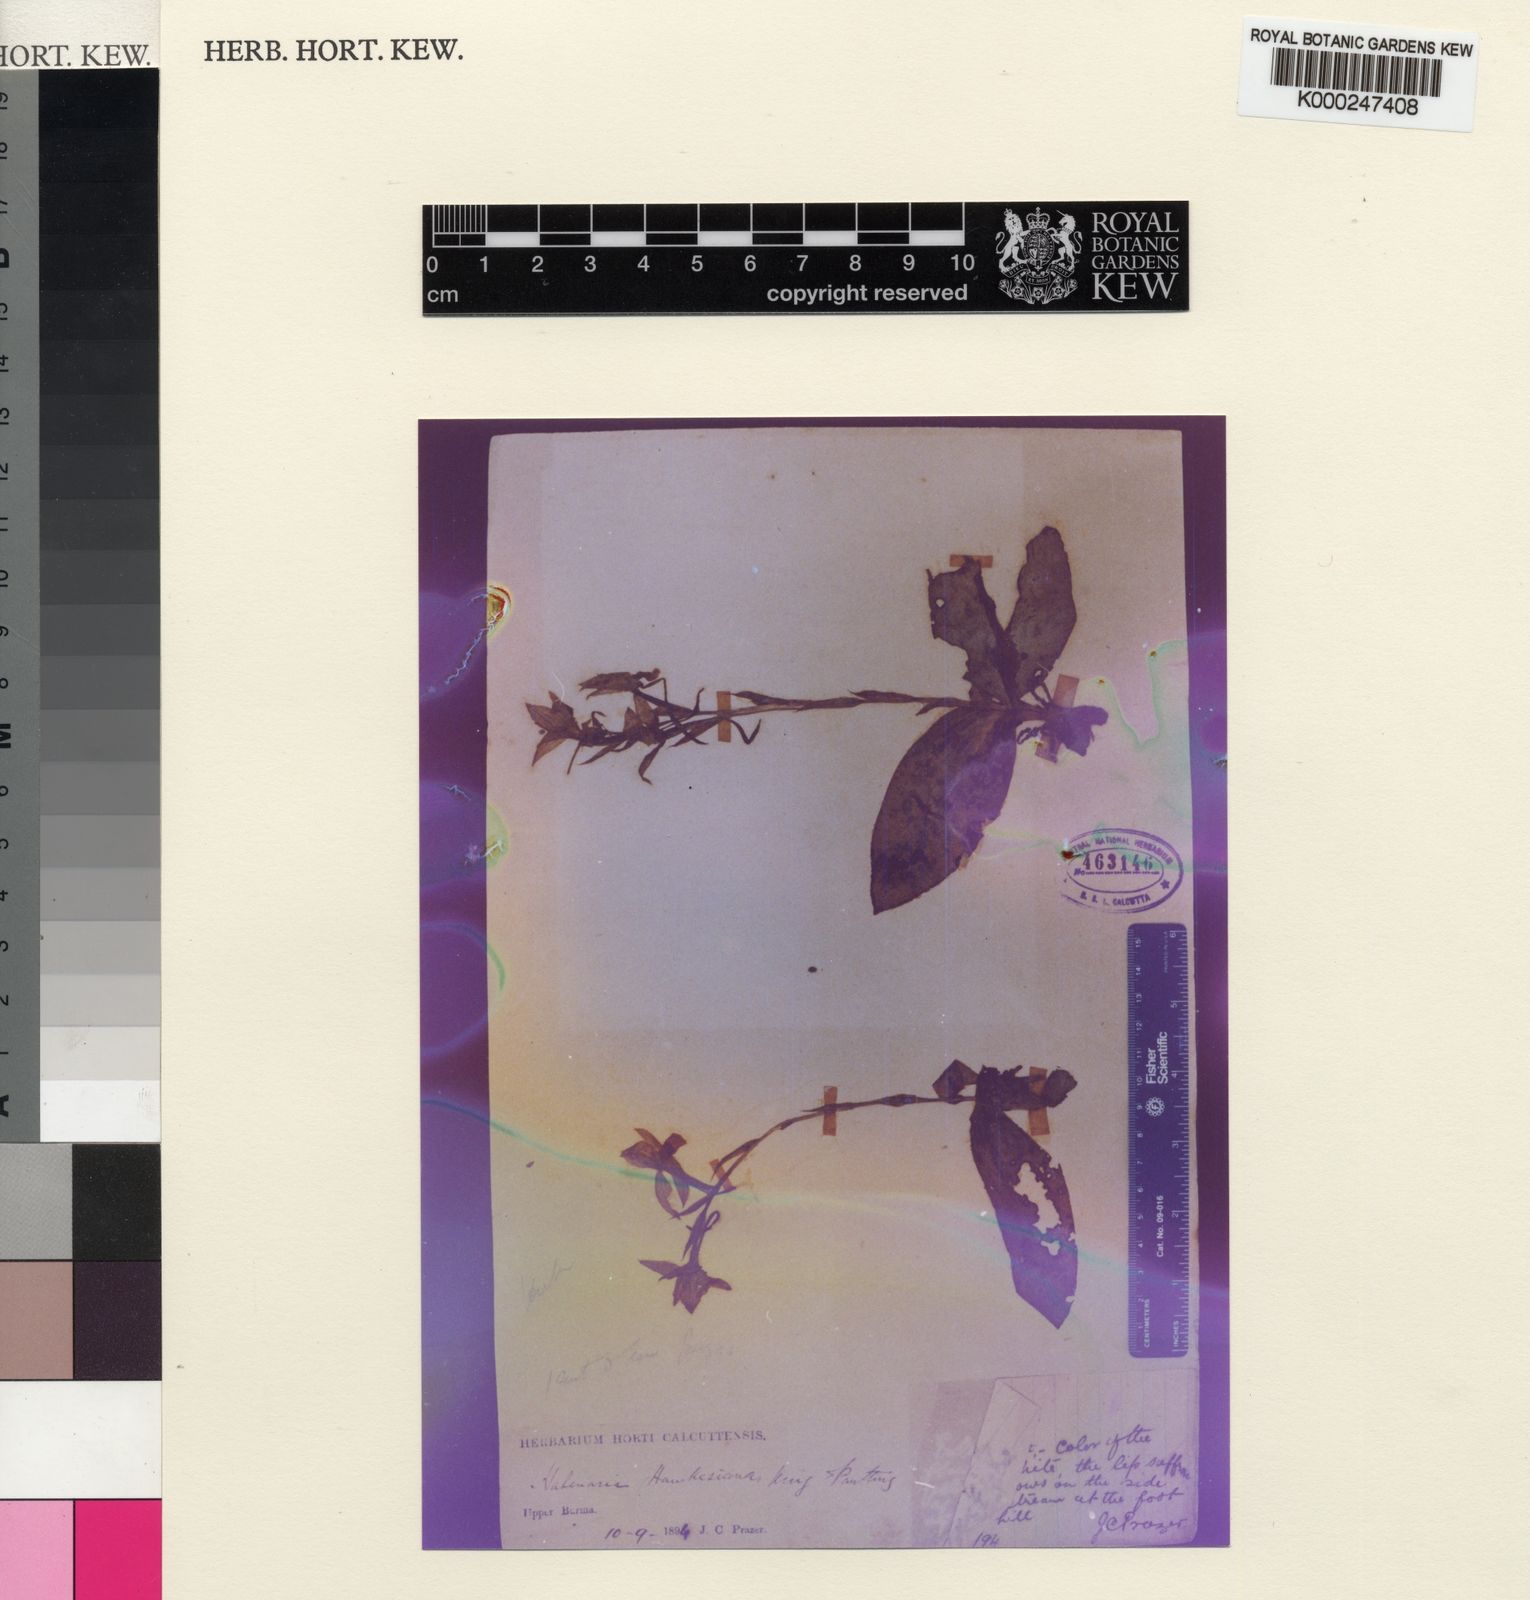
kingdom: Plantae
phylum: Tracheophyta
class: Liliopsida
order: Asparagales
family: Orchidaceae
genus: Pecteilis
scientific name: Pecteilis hawkesiana
